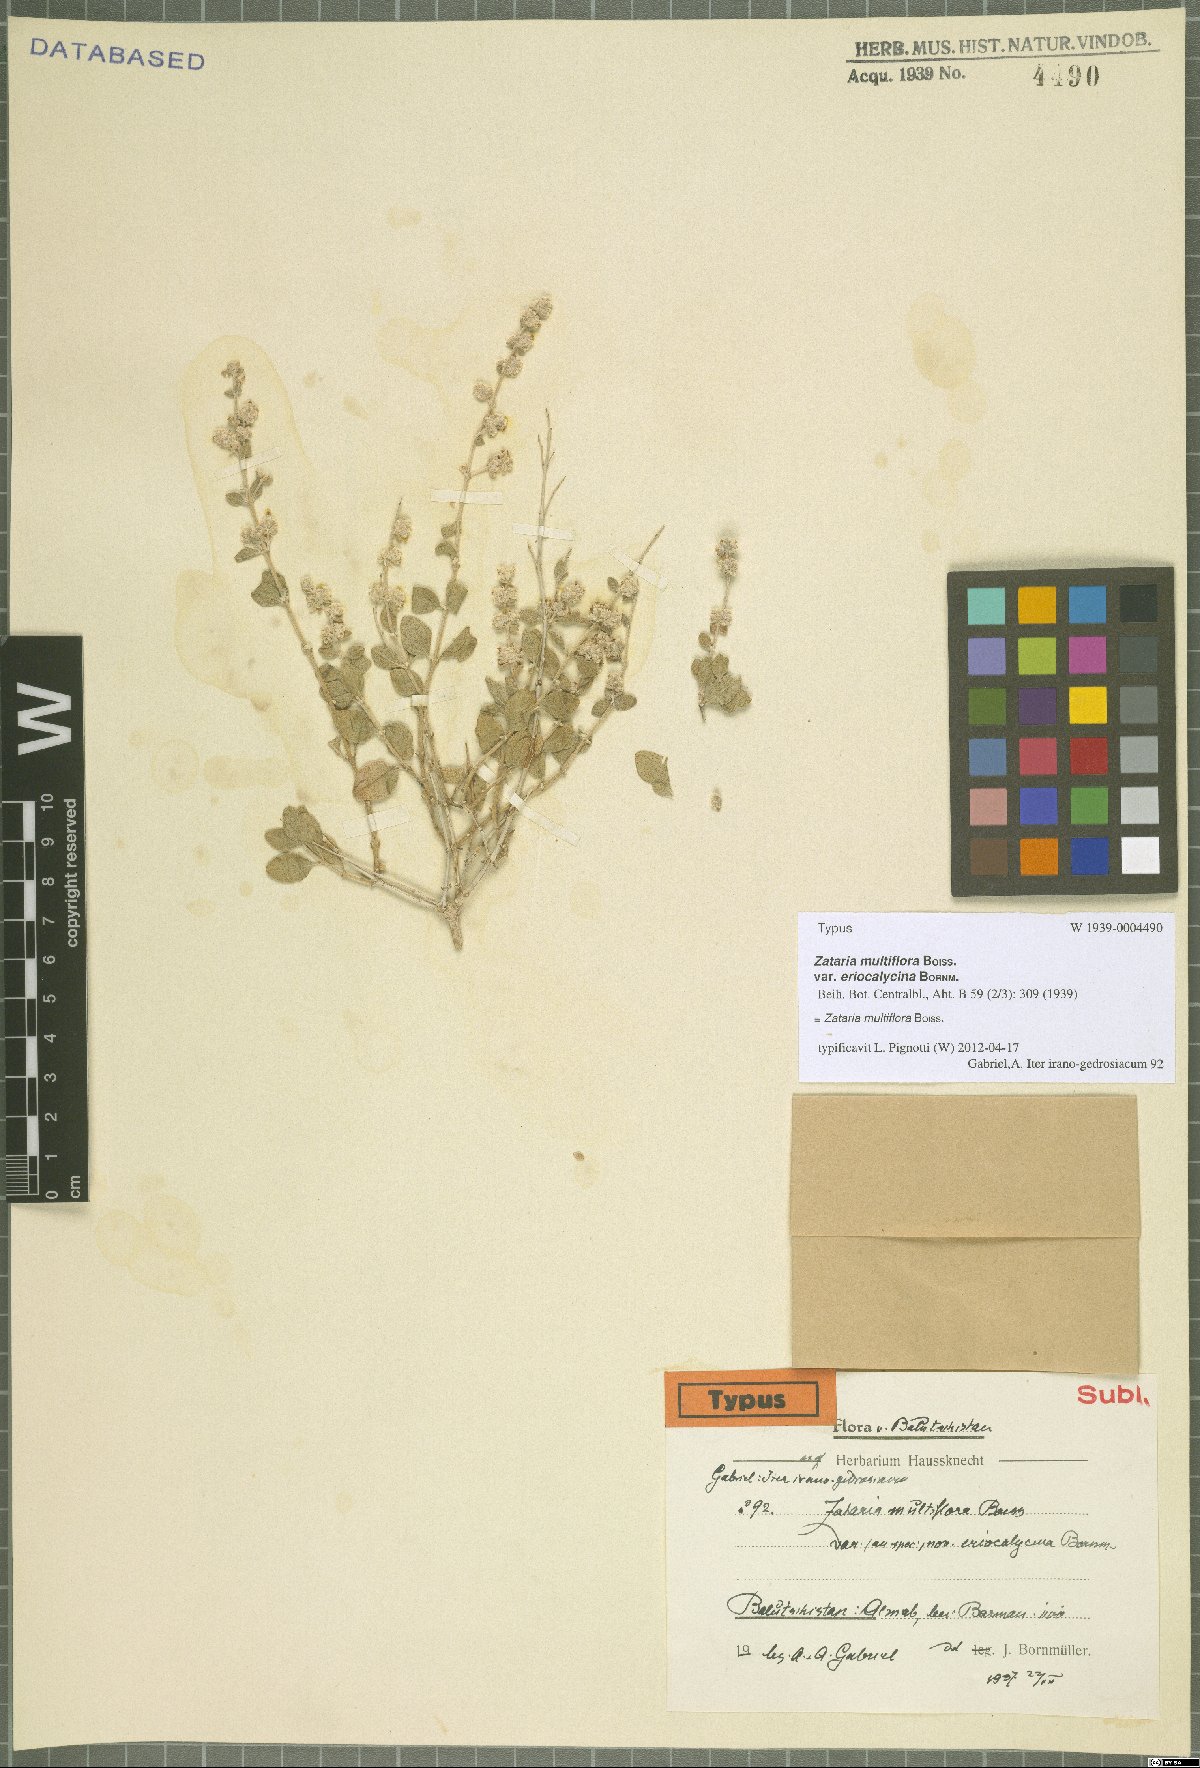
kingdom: Plantae
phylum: Tracheophyta
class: Magnoliopsida
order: Lamiales
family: Lamiaceae
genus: Zataria
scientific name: Zataria multiflora
